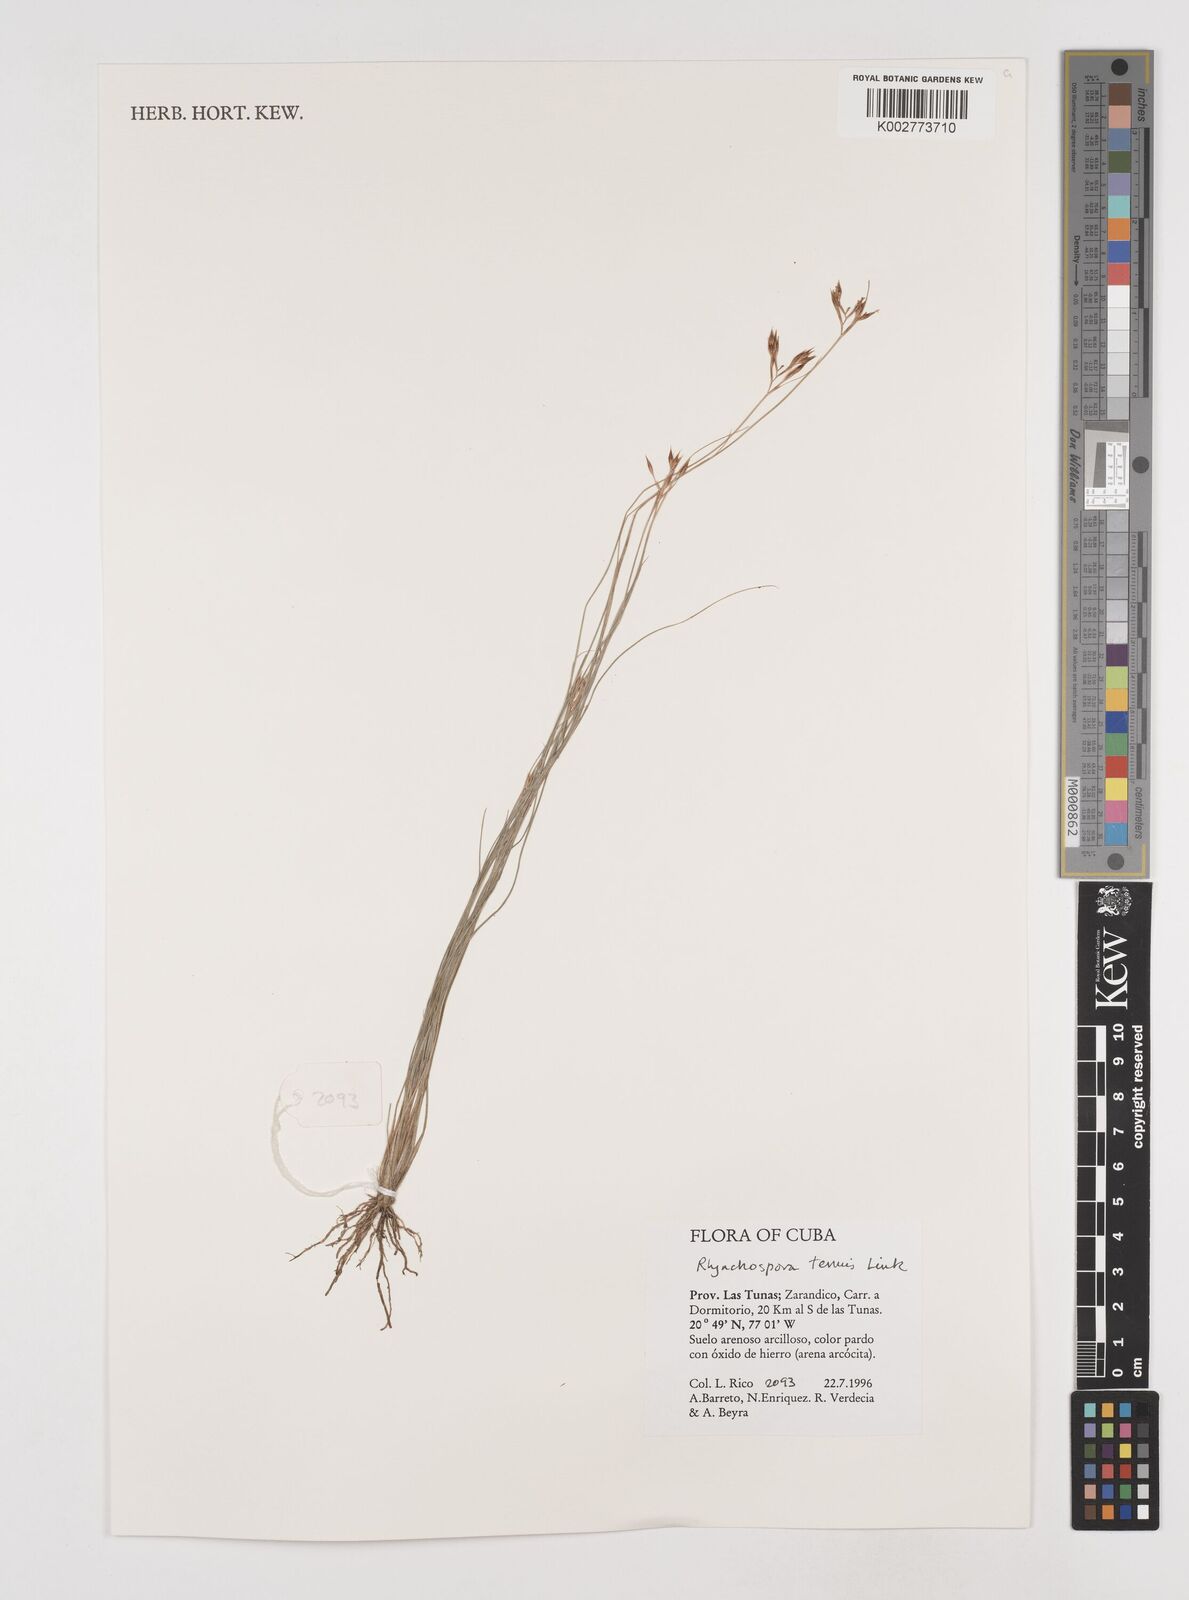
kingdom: Plantae
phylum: Tracheophyta
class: Liliopsida
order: Poales
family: Cyperaceae
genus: Rhynchospora
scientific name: Rhynchospora tenuis
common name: Quill beaksedge
